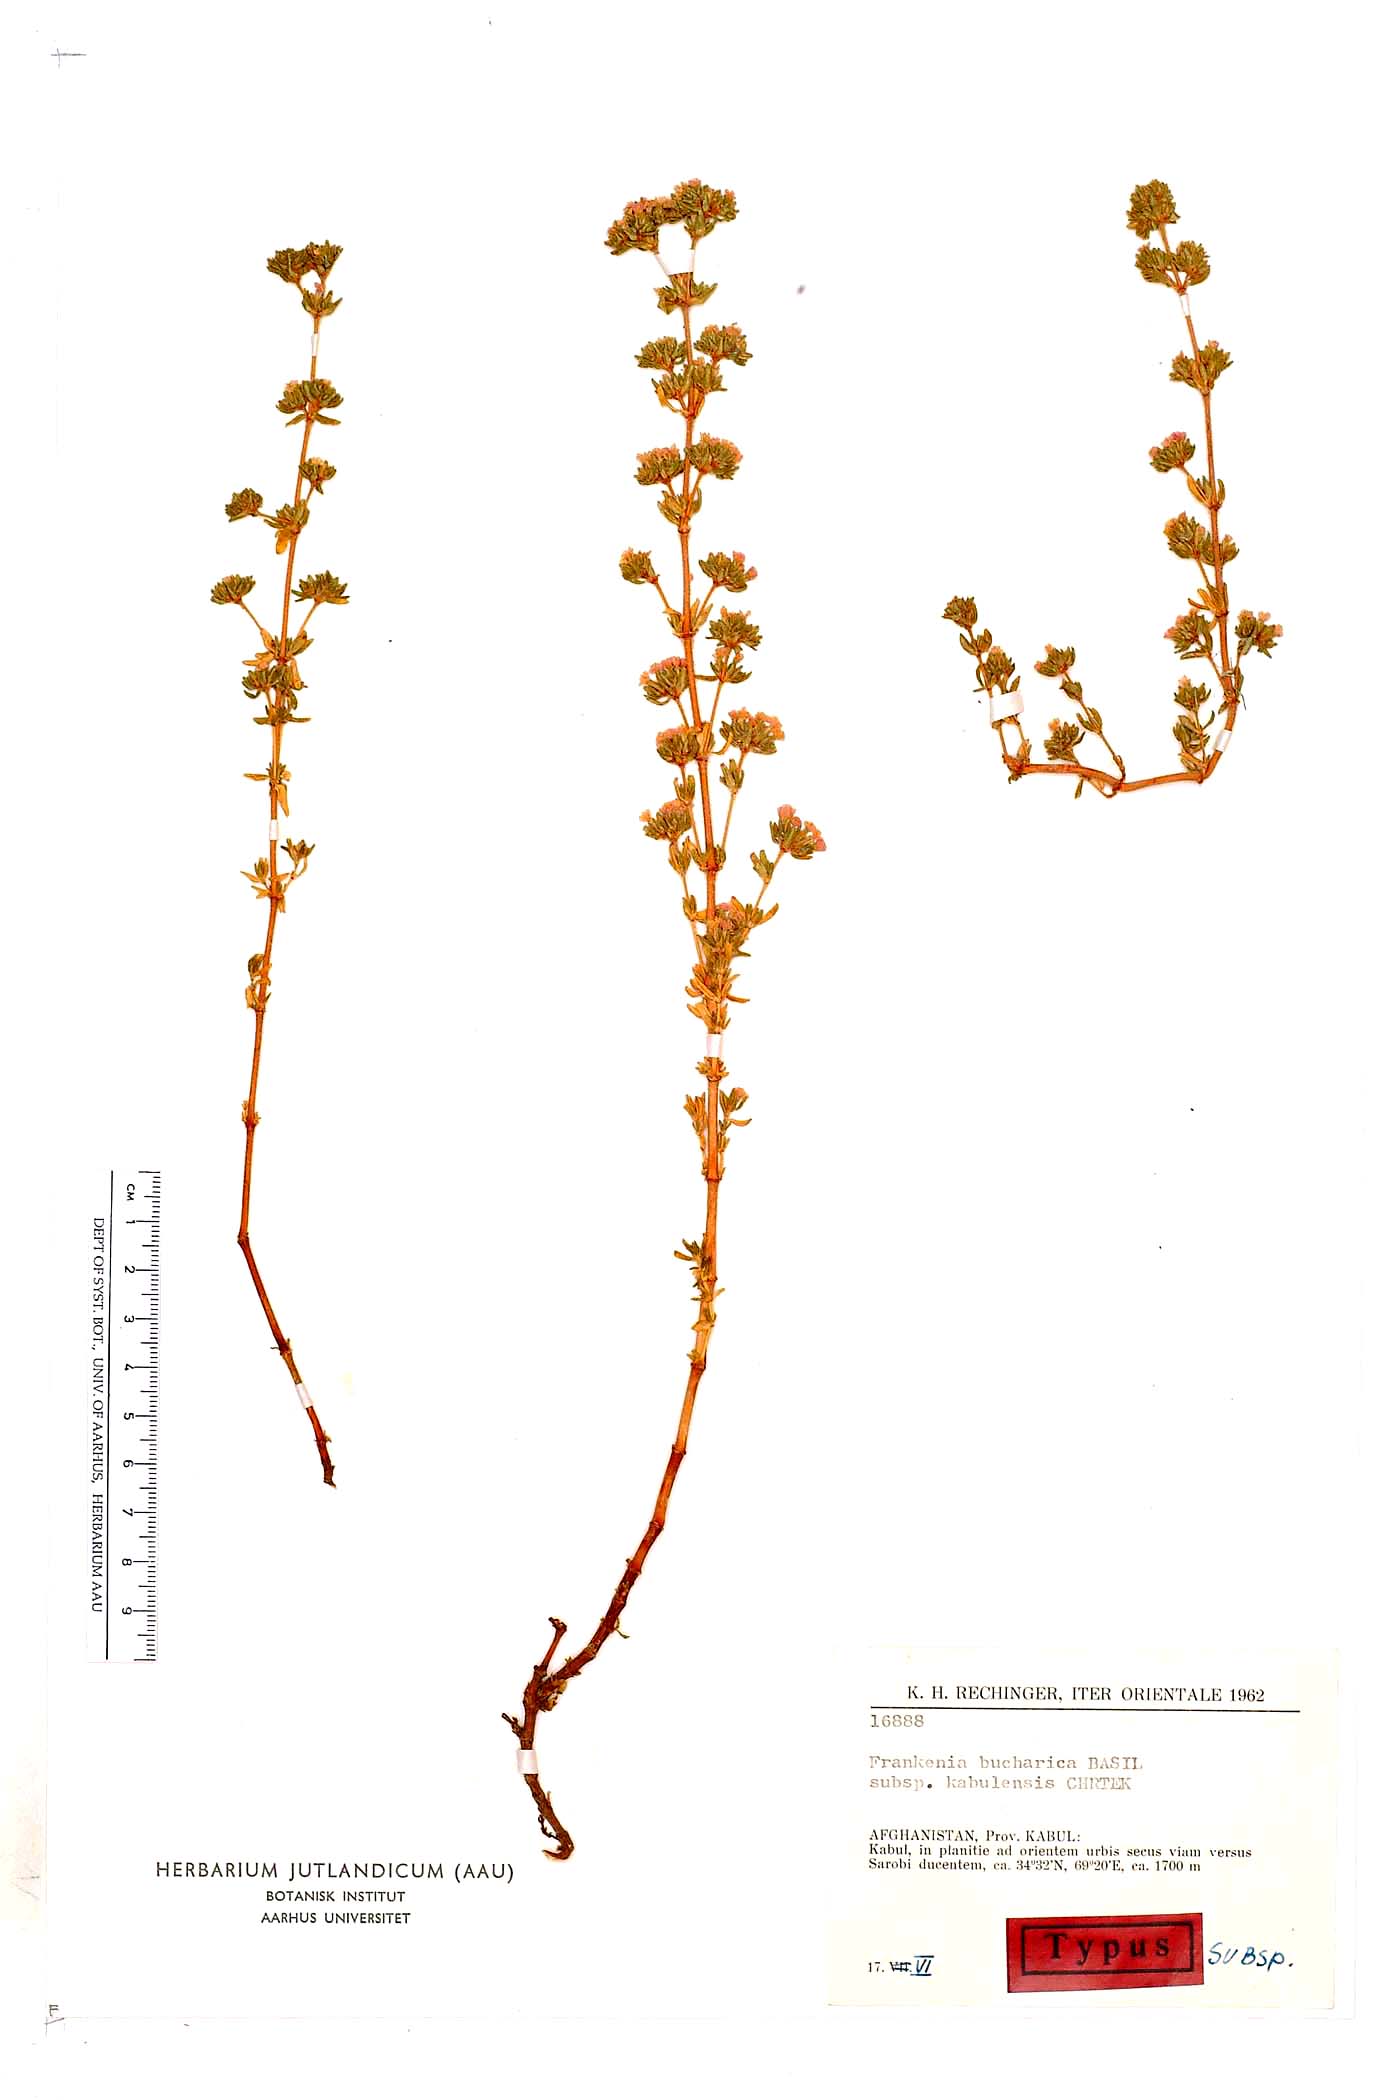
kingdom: Plantae
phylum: Tracheophyta
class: Magnoliopsida
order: Caryophyllales
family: Frankeniaceae
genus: Frankenia
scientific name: Frankenia bucharica
